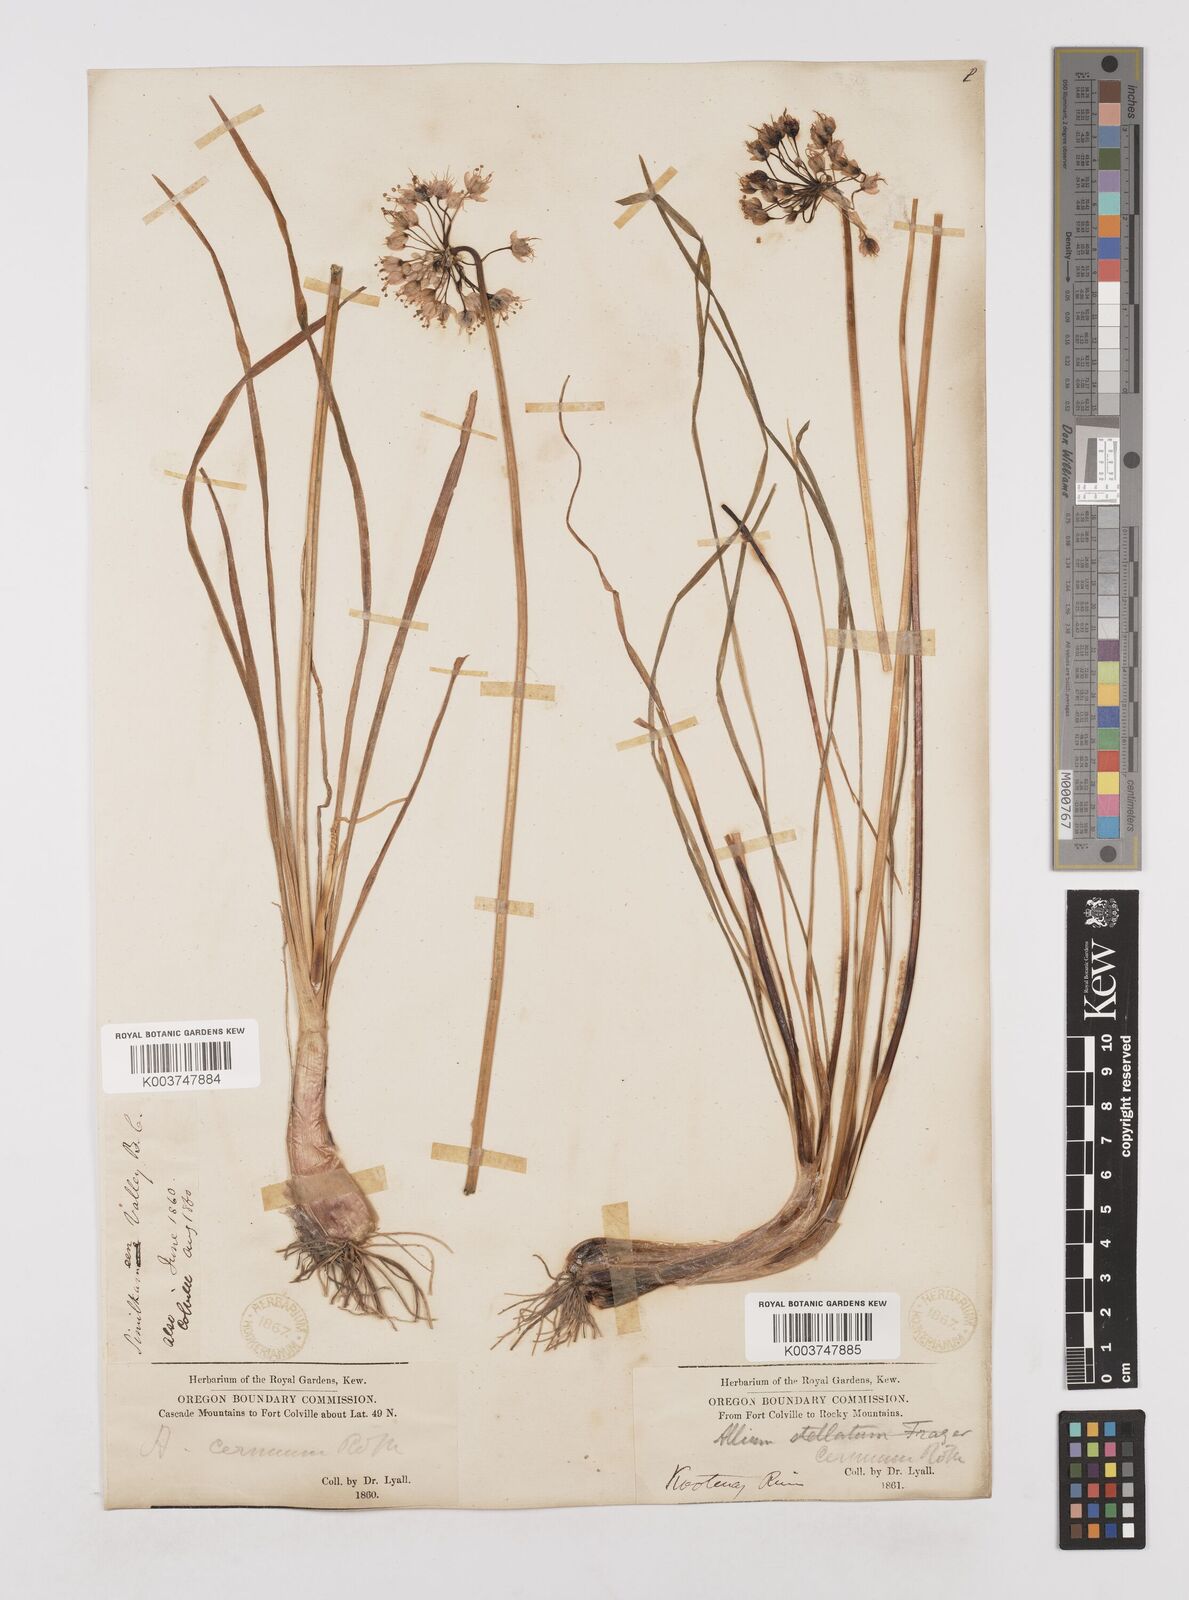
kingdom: Plantae
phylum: Tracheophyta
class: Liliopsida
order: Asparagales
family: Amaryllidaceae
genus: Allium
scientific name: Allium cernuum
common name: Nodding onion
